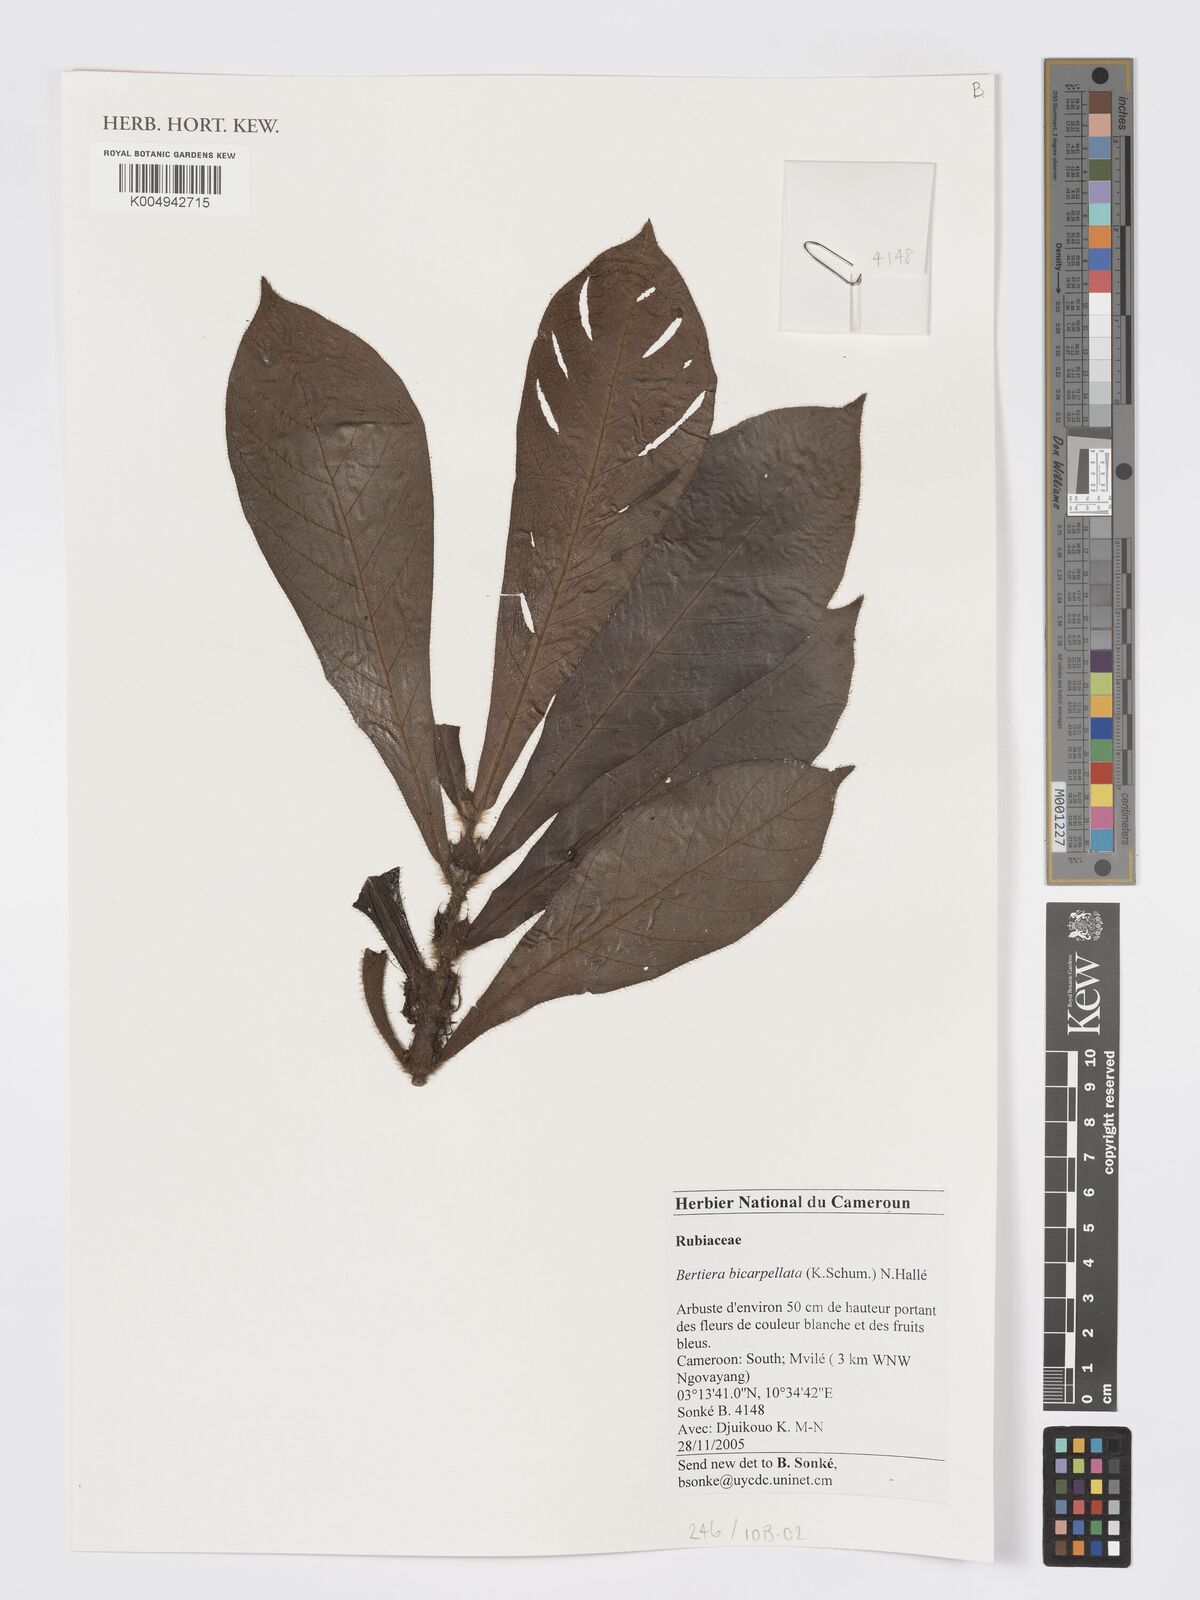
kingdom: Plantae
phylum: Tracheophyta
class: Magnoliopsida
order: Gentianales
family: Rubiaceae
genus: Bertiera
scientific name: Bertiera bicarpellata
